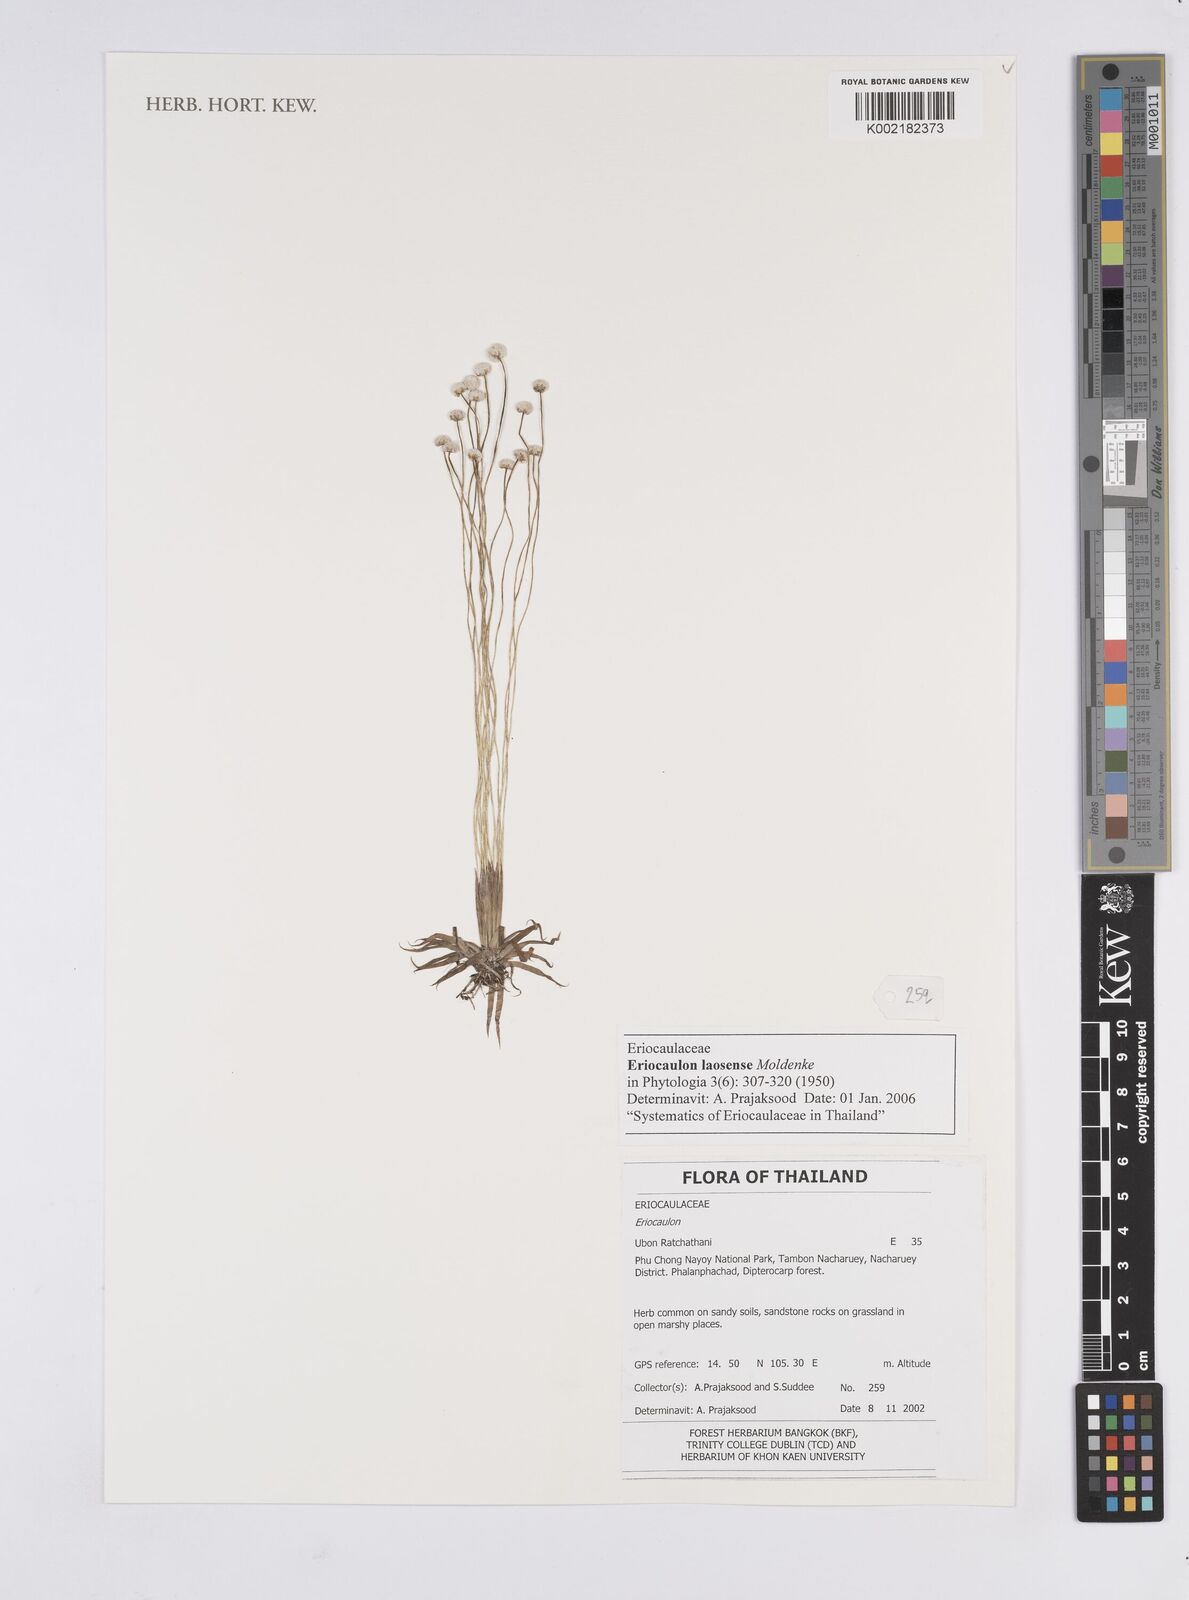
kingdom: Plantae
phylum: Tracheophyta
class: Liliopsida
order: Poales
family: Eriocaulaceae
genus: Eriocaulon
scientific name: Eriocaulon laosense
